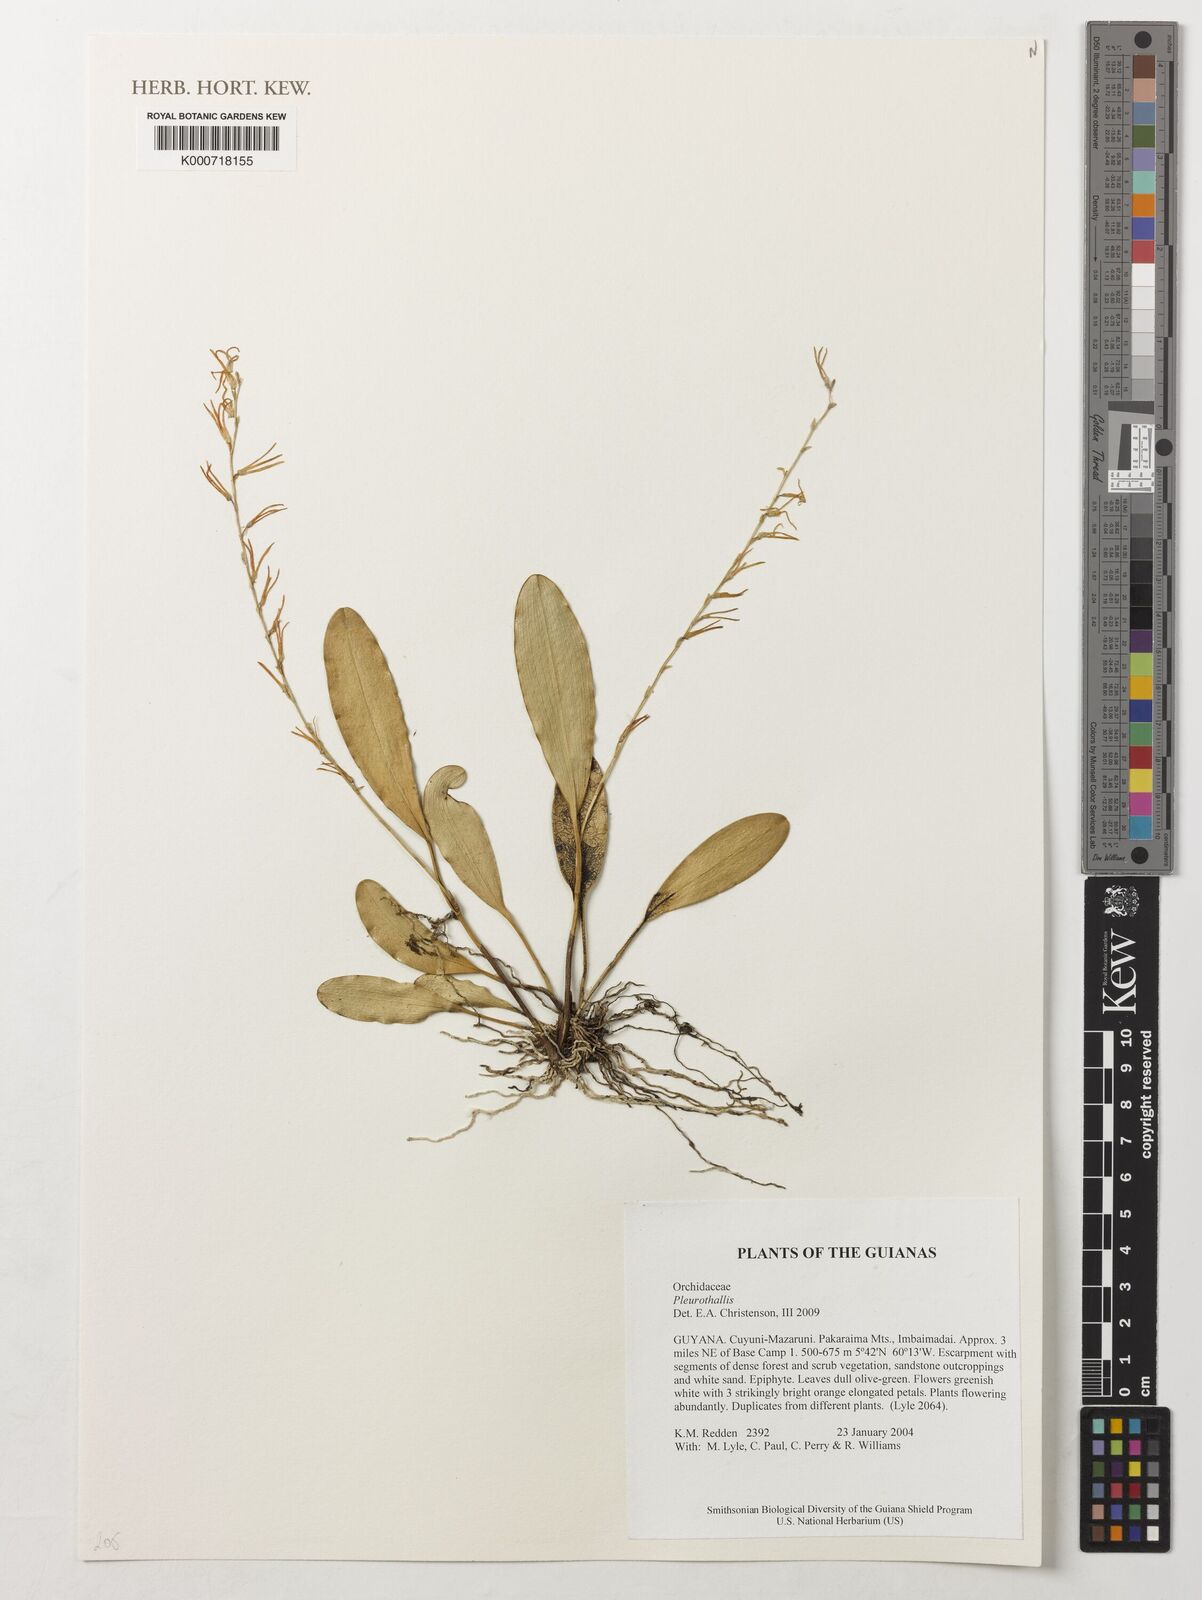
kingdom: Plantae
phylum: Tracheophyta
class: Liliopsida
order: Asparagales
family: Orchidaceae
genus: Pleurothallis
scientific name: Pleurothallis
